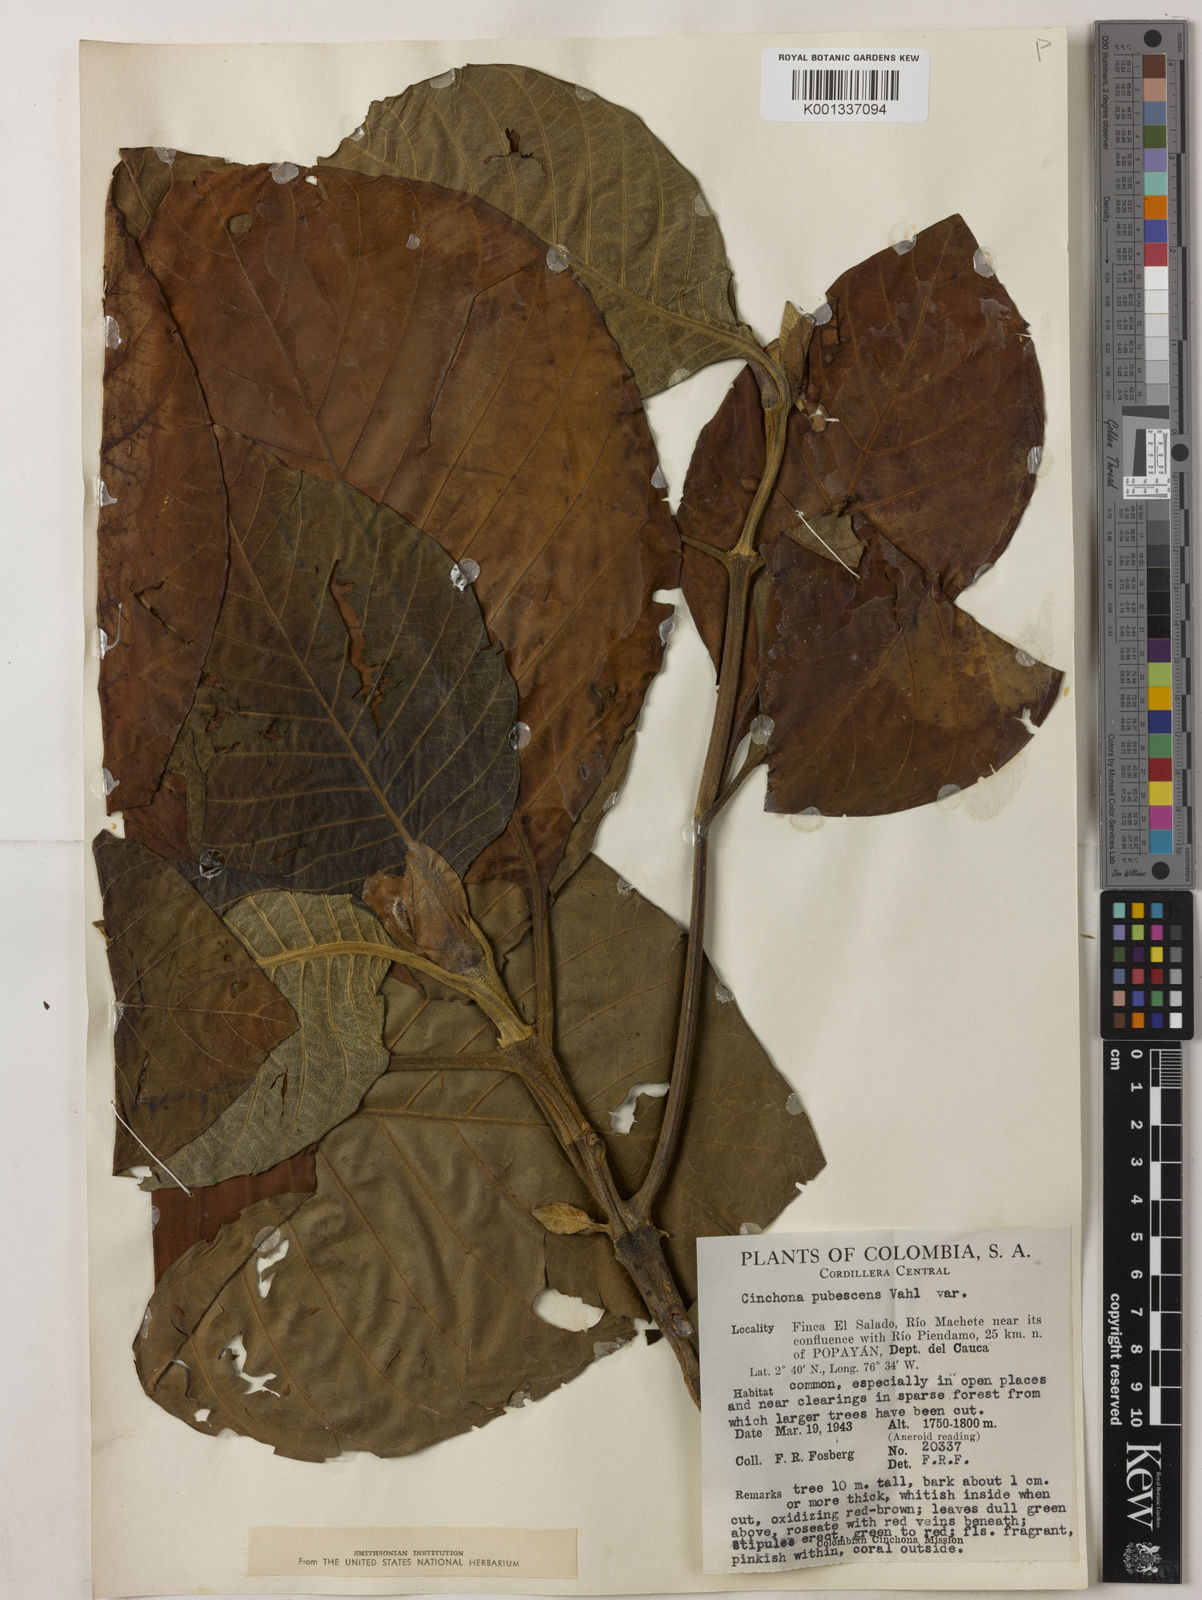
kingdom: Plantae
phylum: Tracheophyta
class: Magnoliopsida
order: Gentianales
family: Rubiaceae
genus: Cinchona
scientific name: Cinchona pubescens
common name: Quinine
